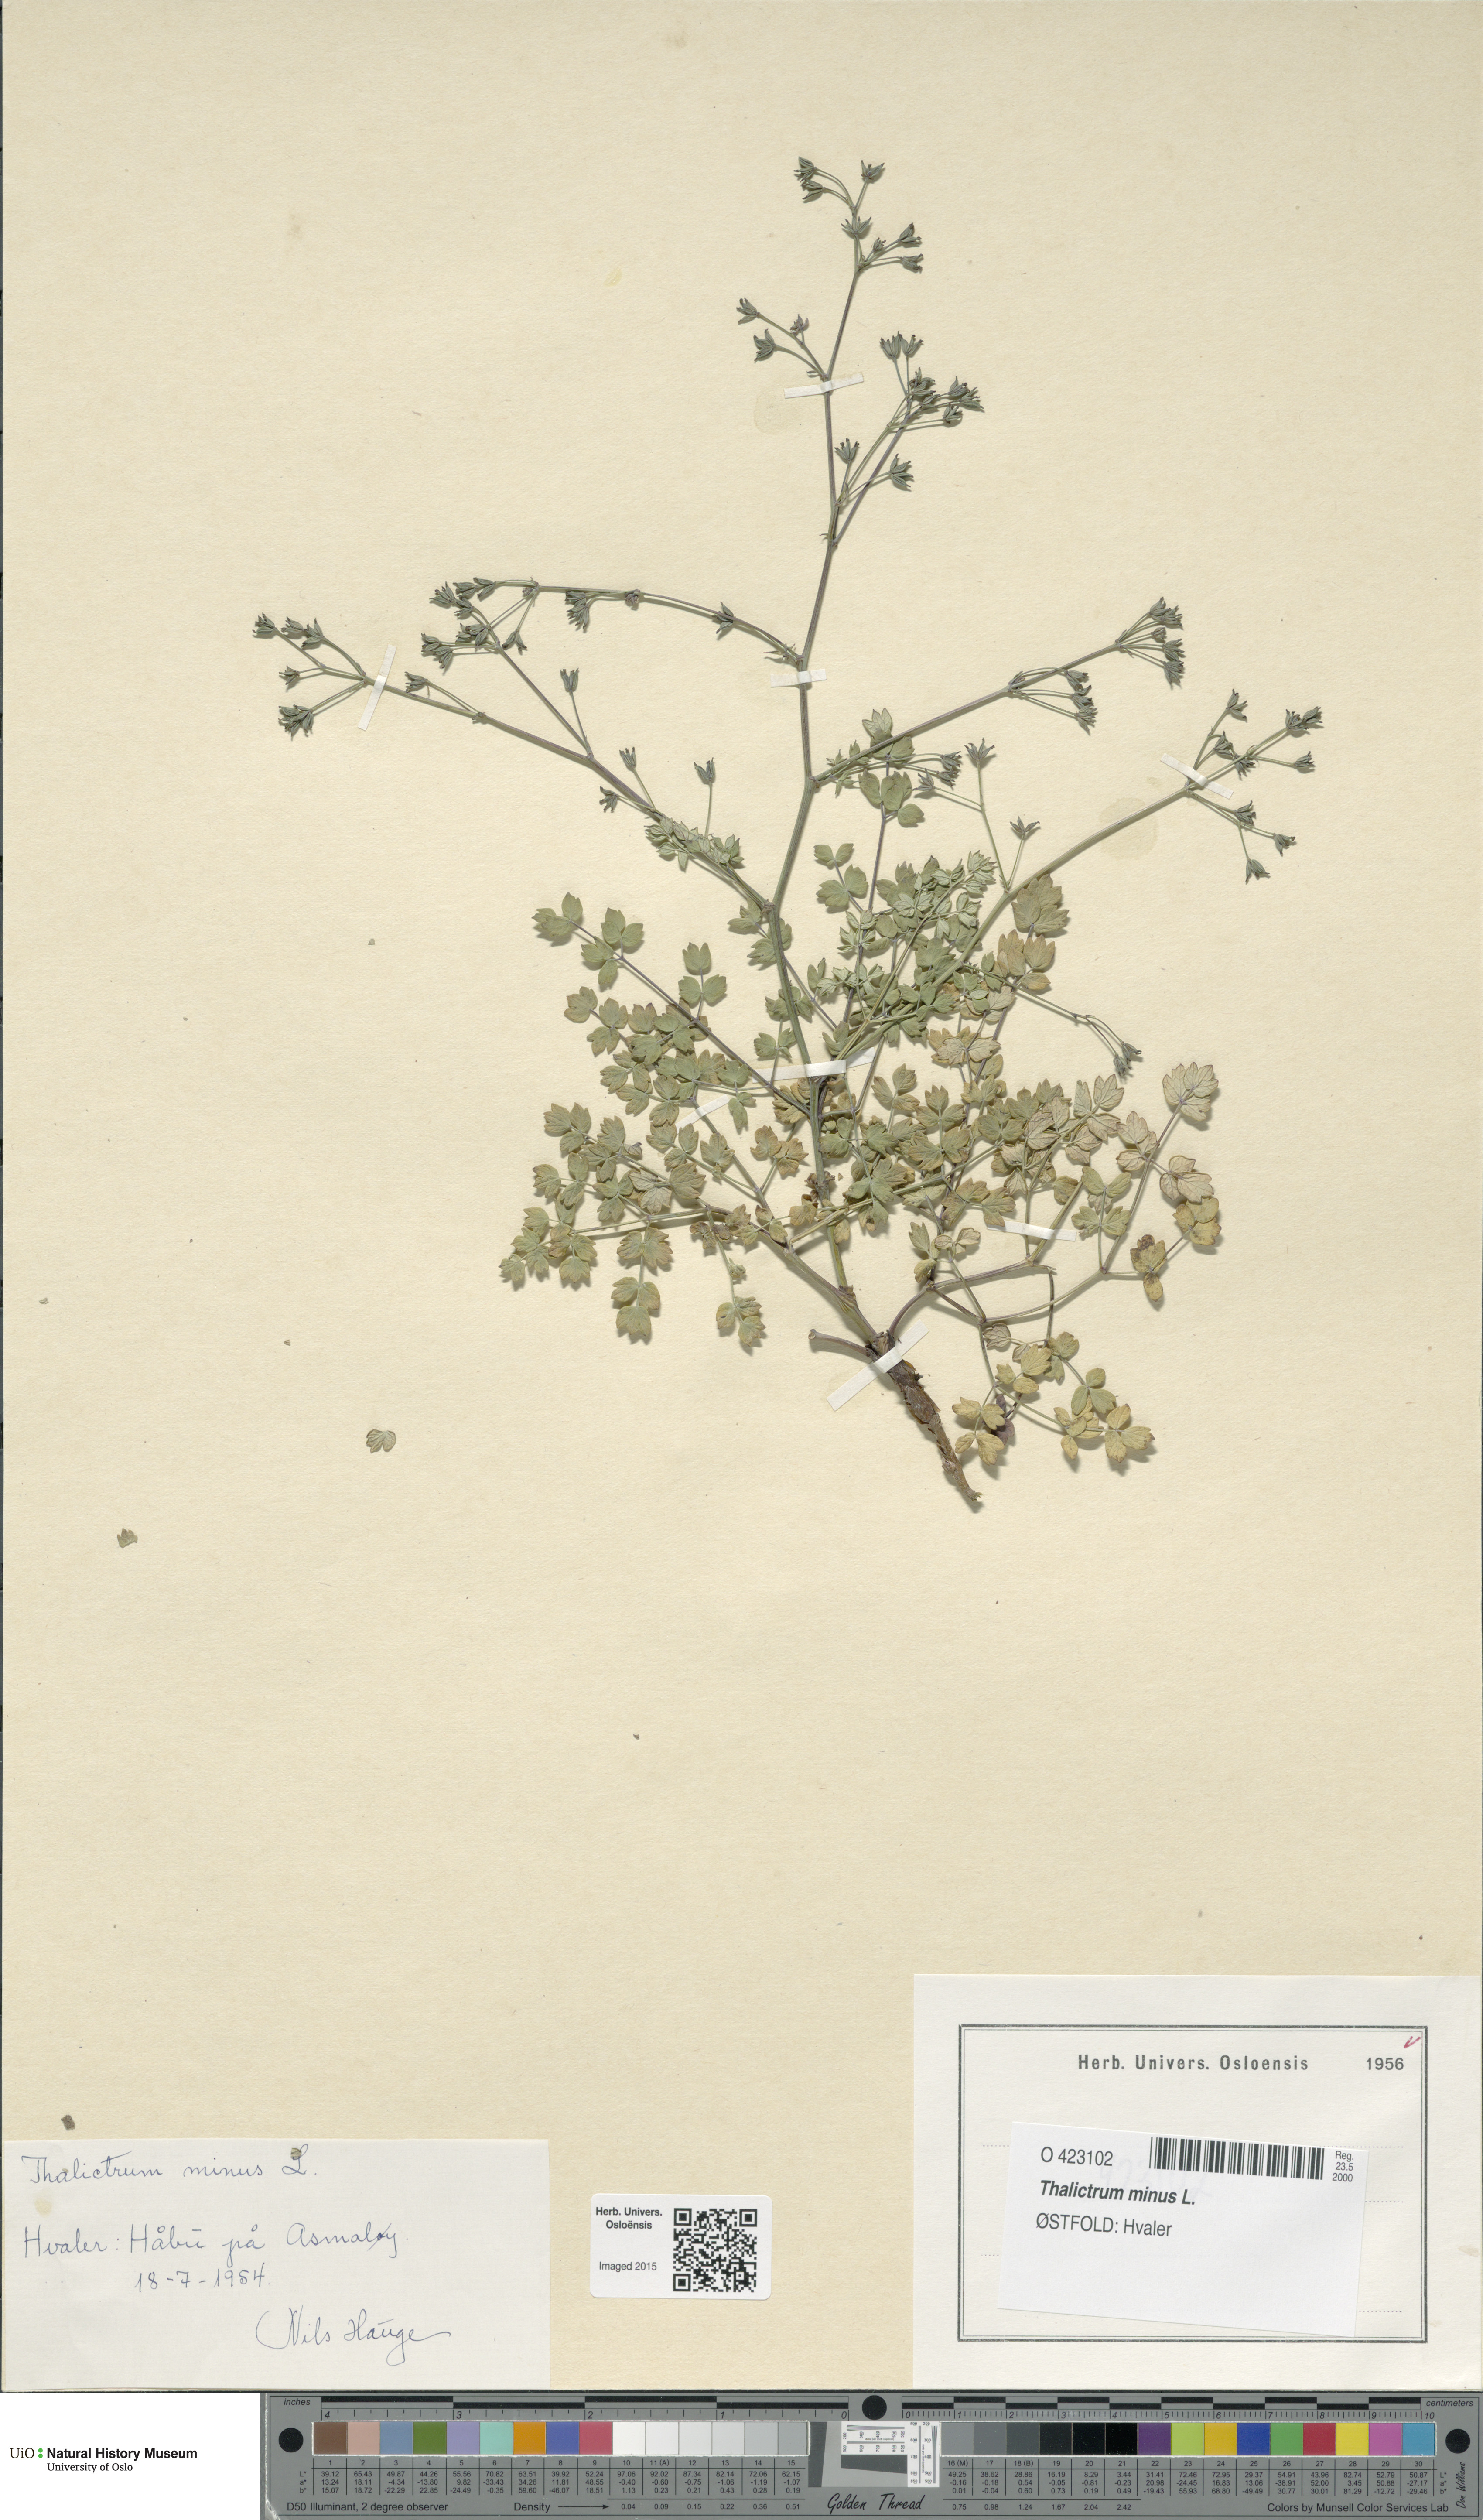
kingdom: Plantae
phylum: Tracheophyta
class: Magnoliopsida
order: Ranunculales
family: Ranunculaceae
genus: Thalictrum
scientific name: Thalictrum minus
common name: Lesser meadow-rue
